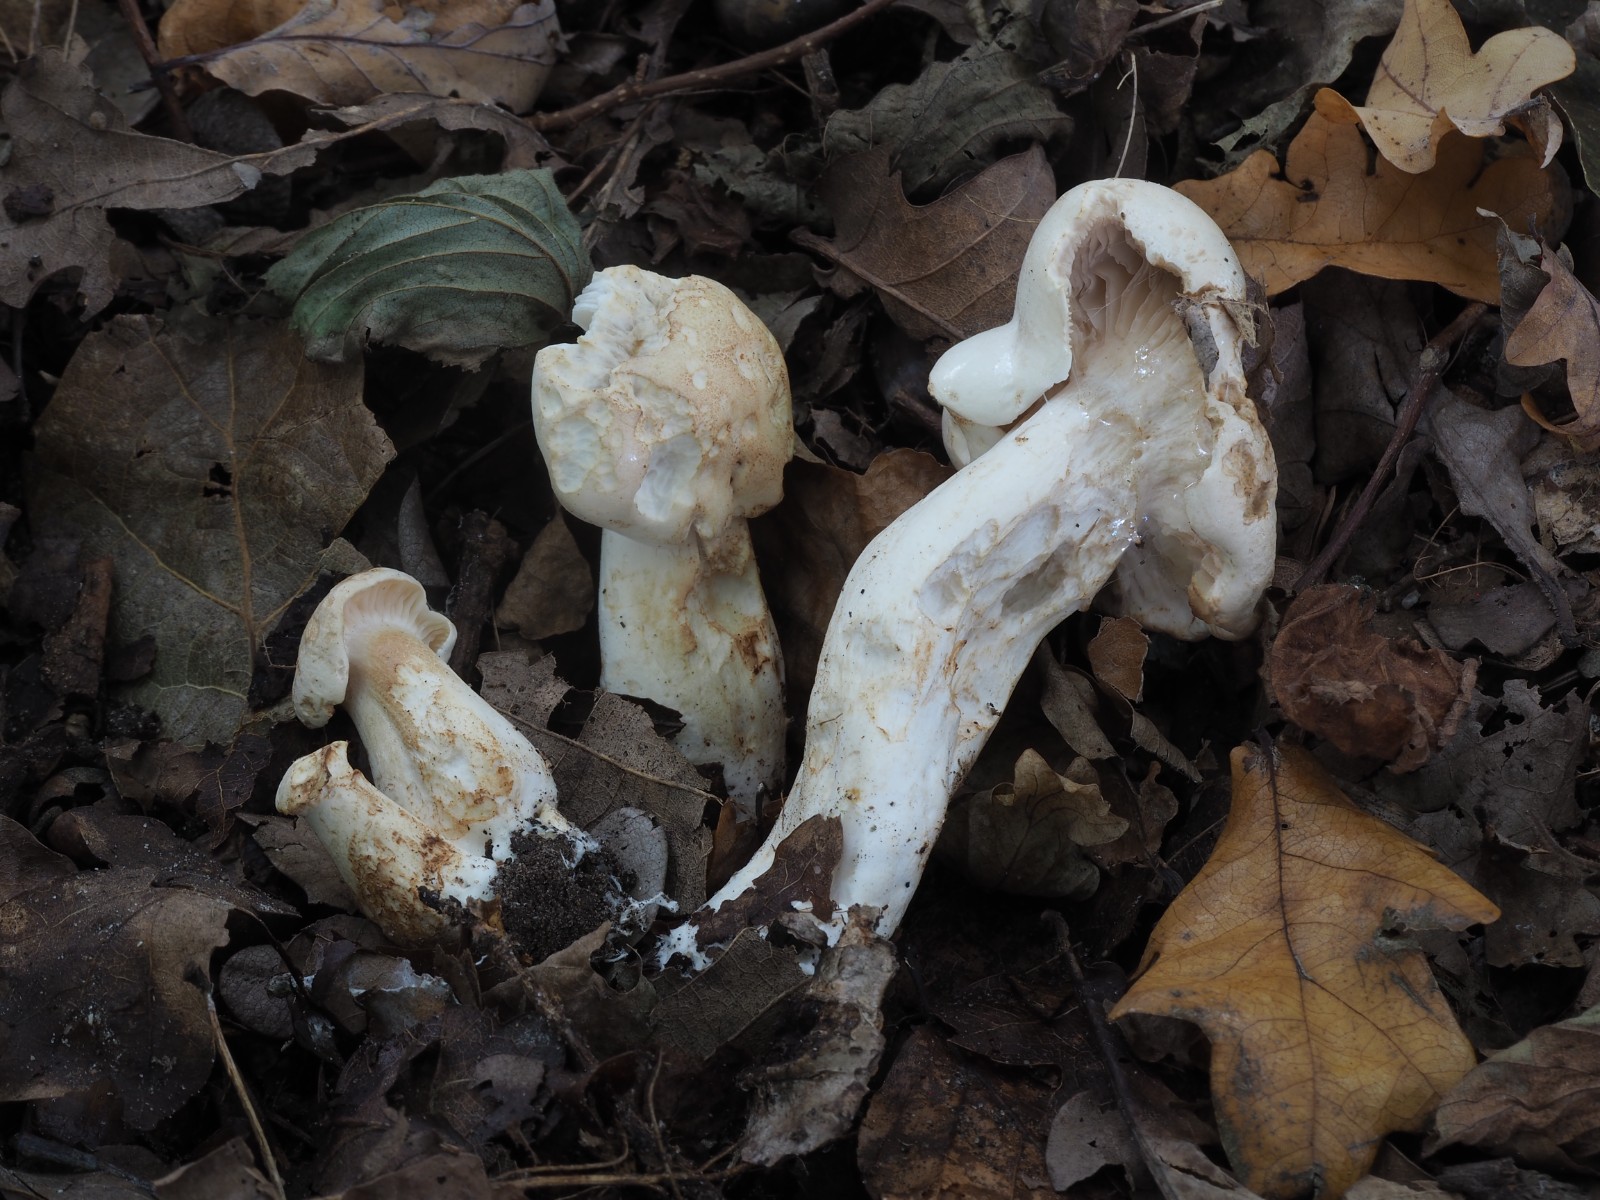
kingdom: Fungi
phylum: Basidiomycota
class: Agaricomycetes
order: Agaricales
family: Tricholomataceae
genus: Tricholoma
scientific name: Tricholoma album
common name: honning-ridderhat
